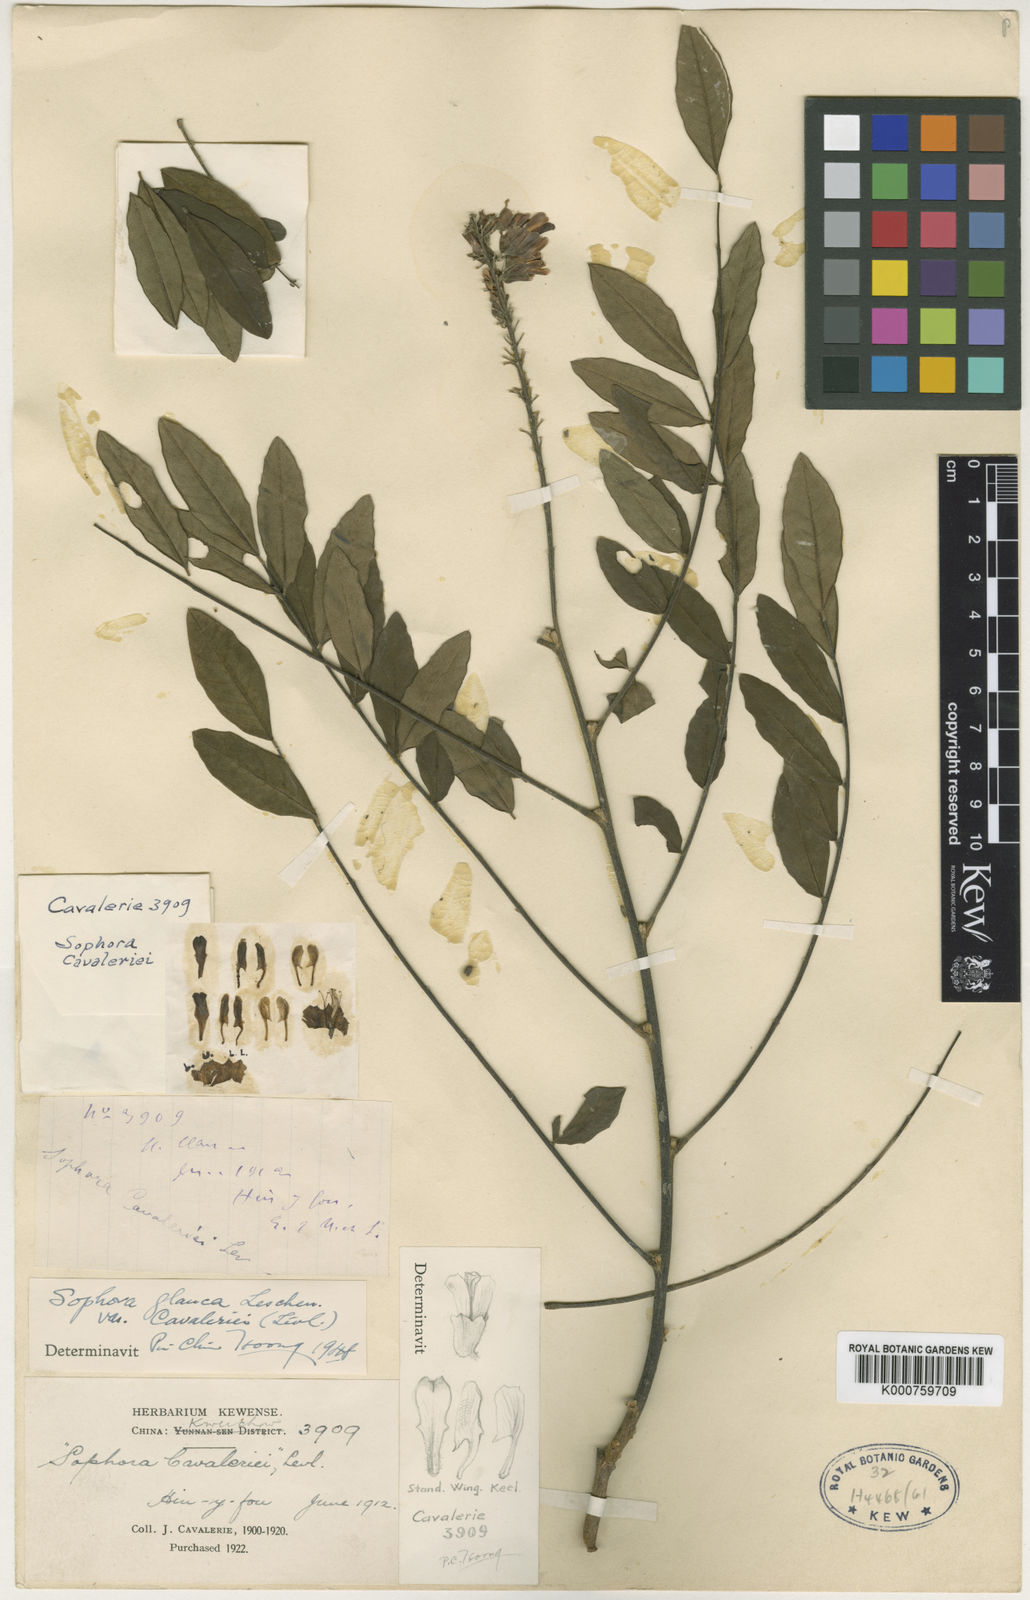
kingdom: Plantae
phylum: Tracheophyta
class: Magnoliopsida
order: Fabales
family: Fabaceae
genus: Sophora
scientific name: Sophora velutina
